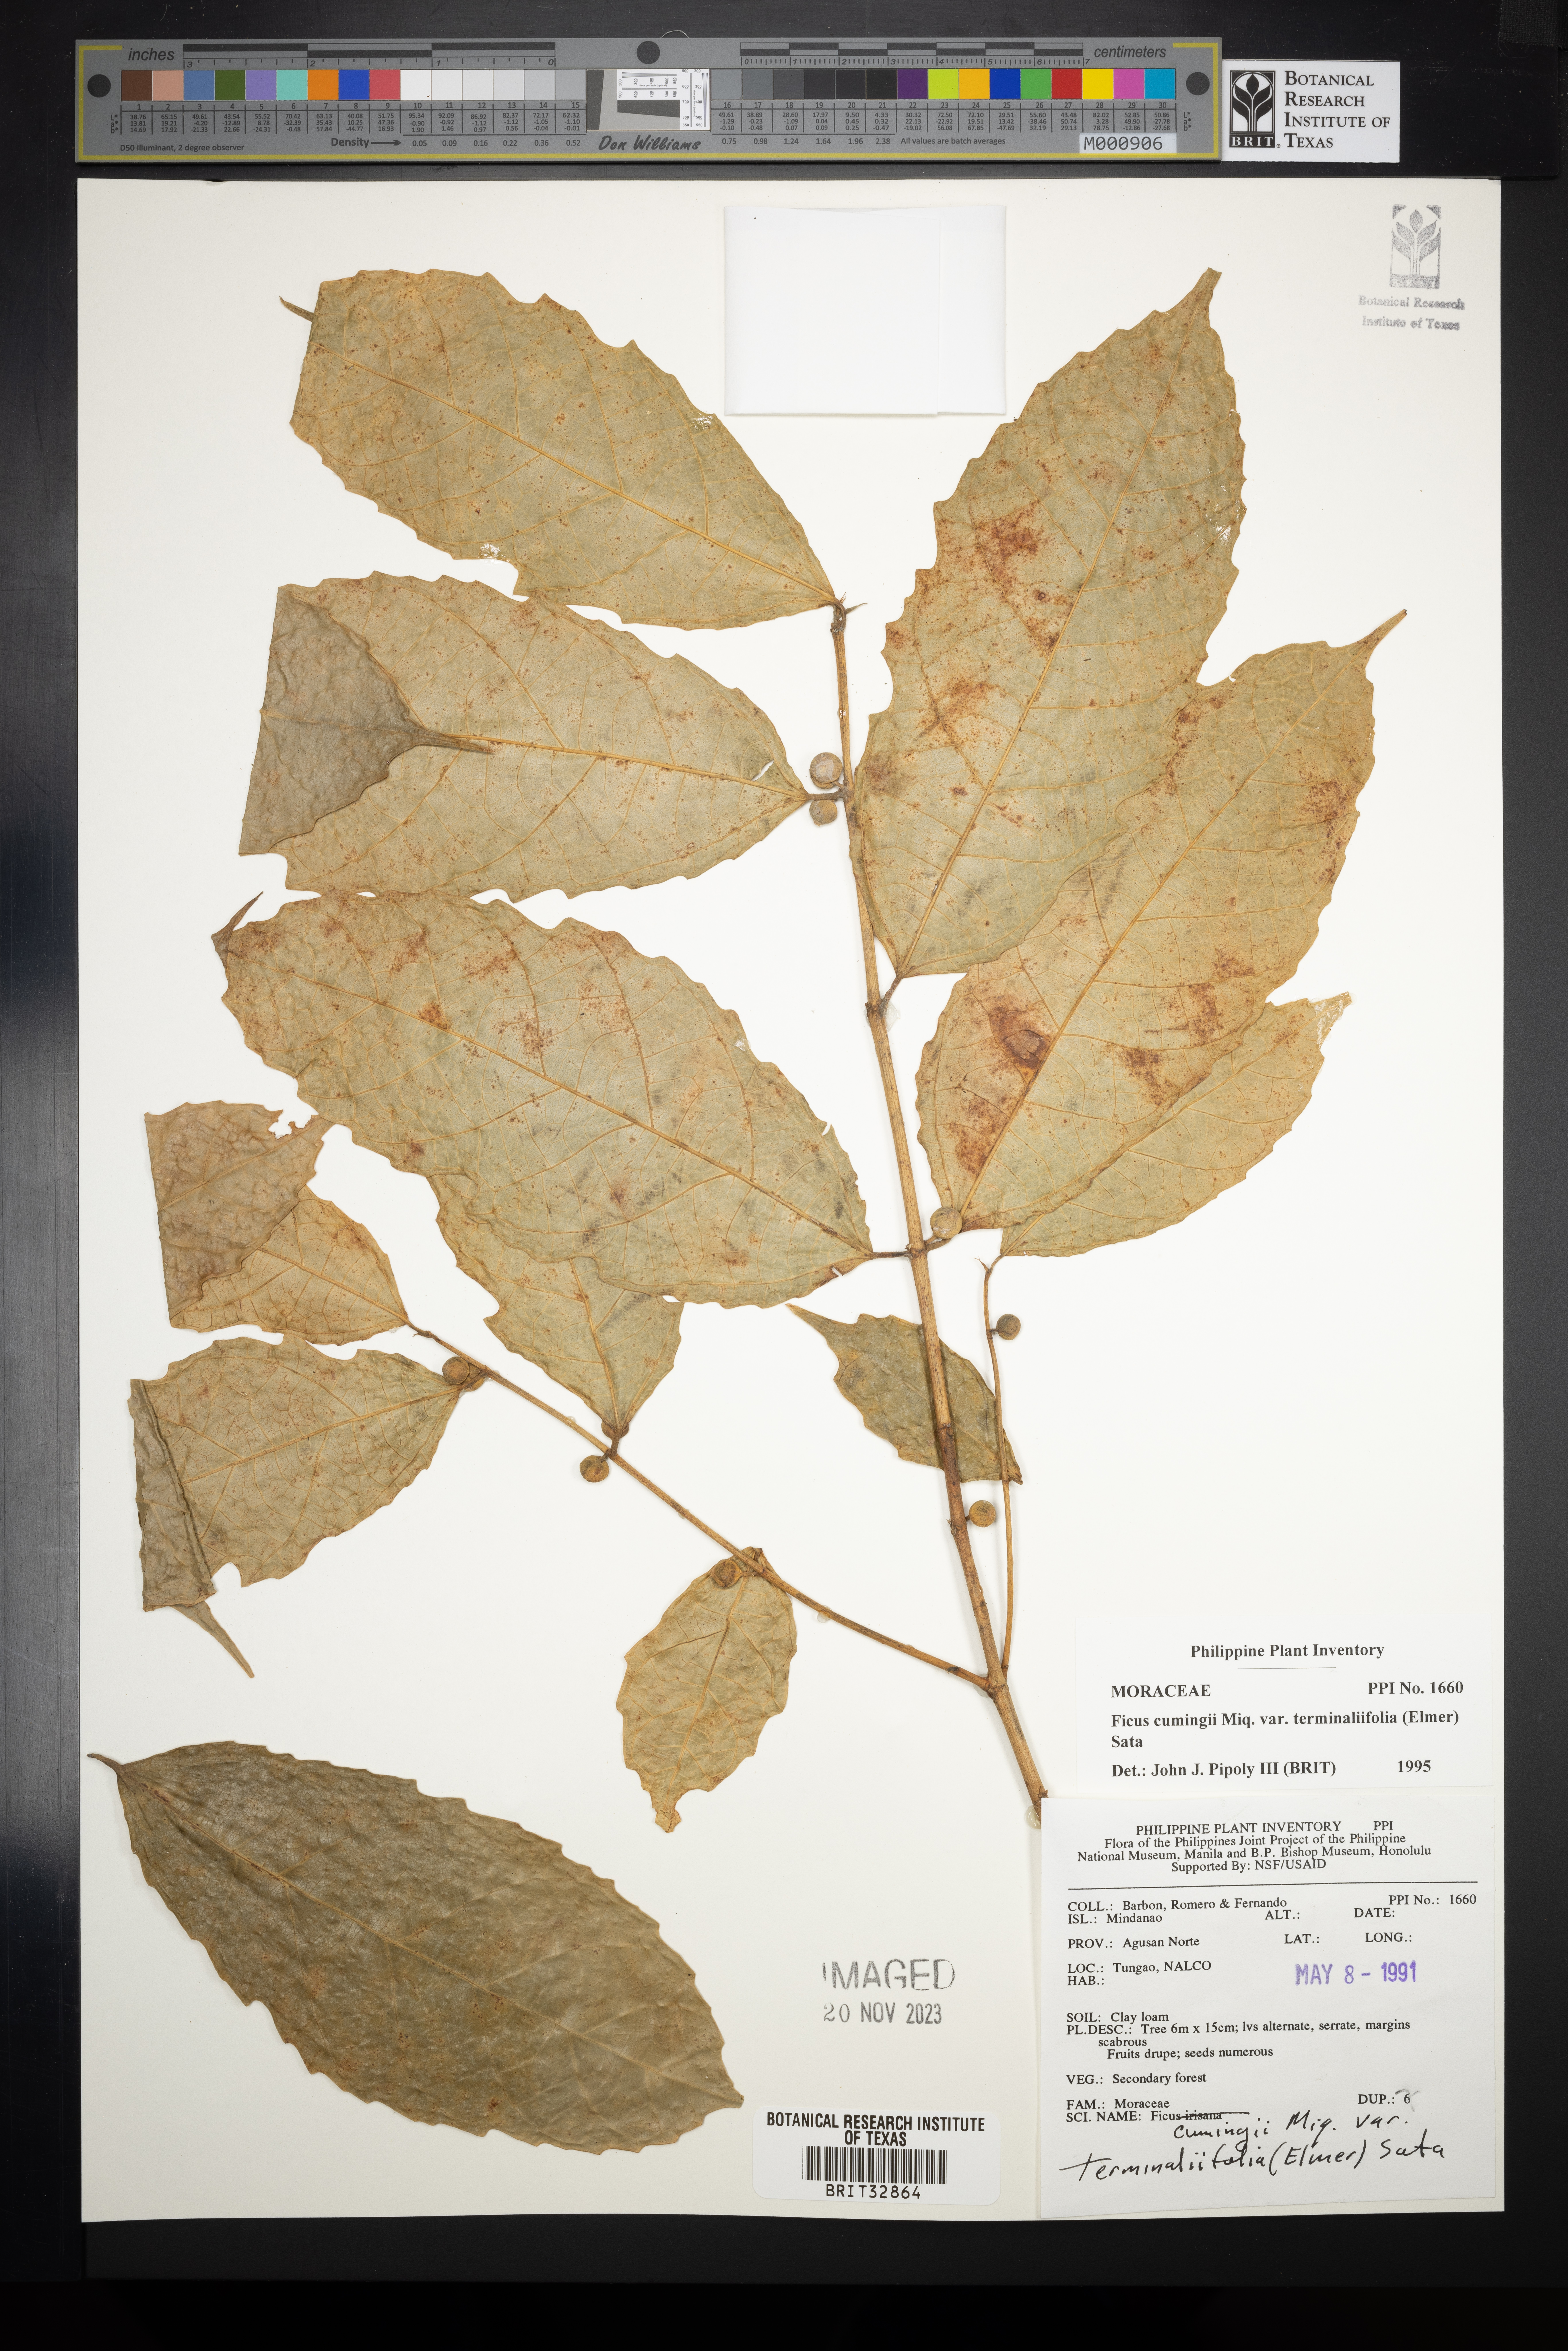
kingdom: Plantae
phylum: Tracheophyta
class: Magnoliopsida
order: Rosales
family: Moraceae
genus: Ficus
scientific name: Ficus cumingii
